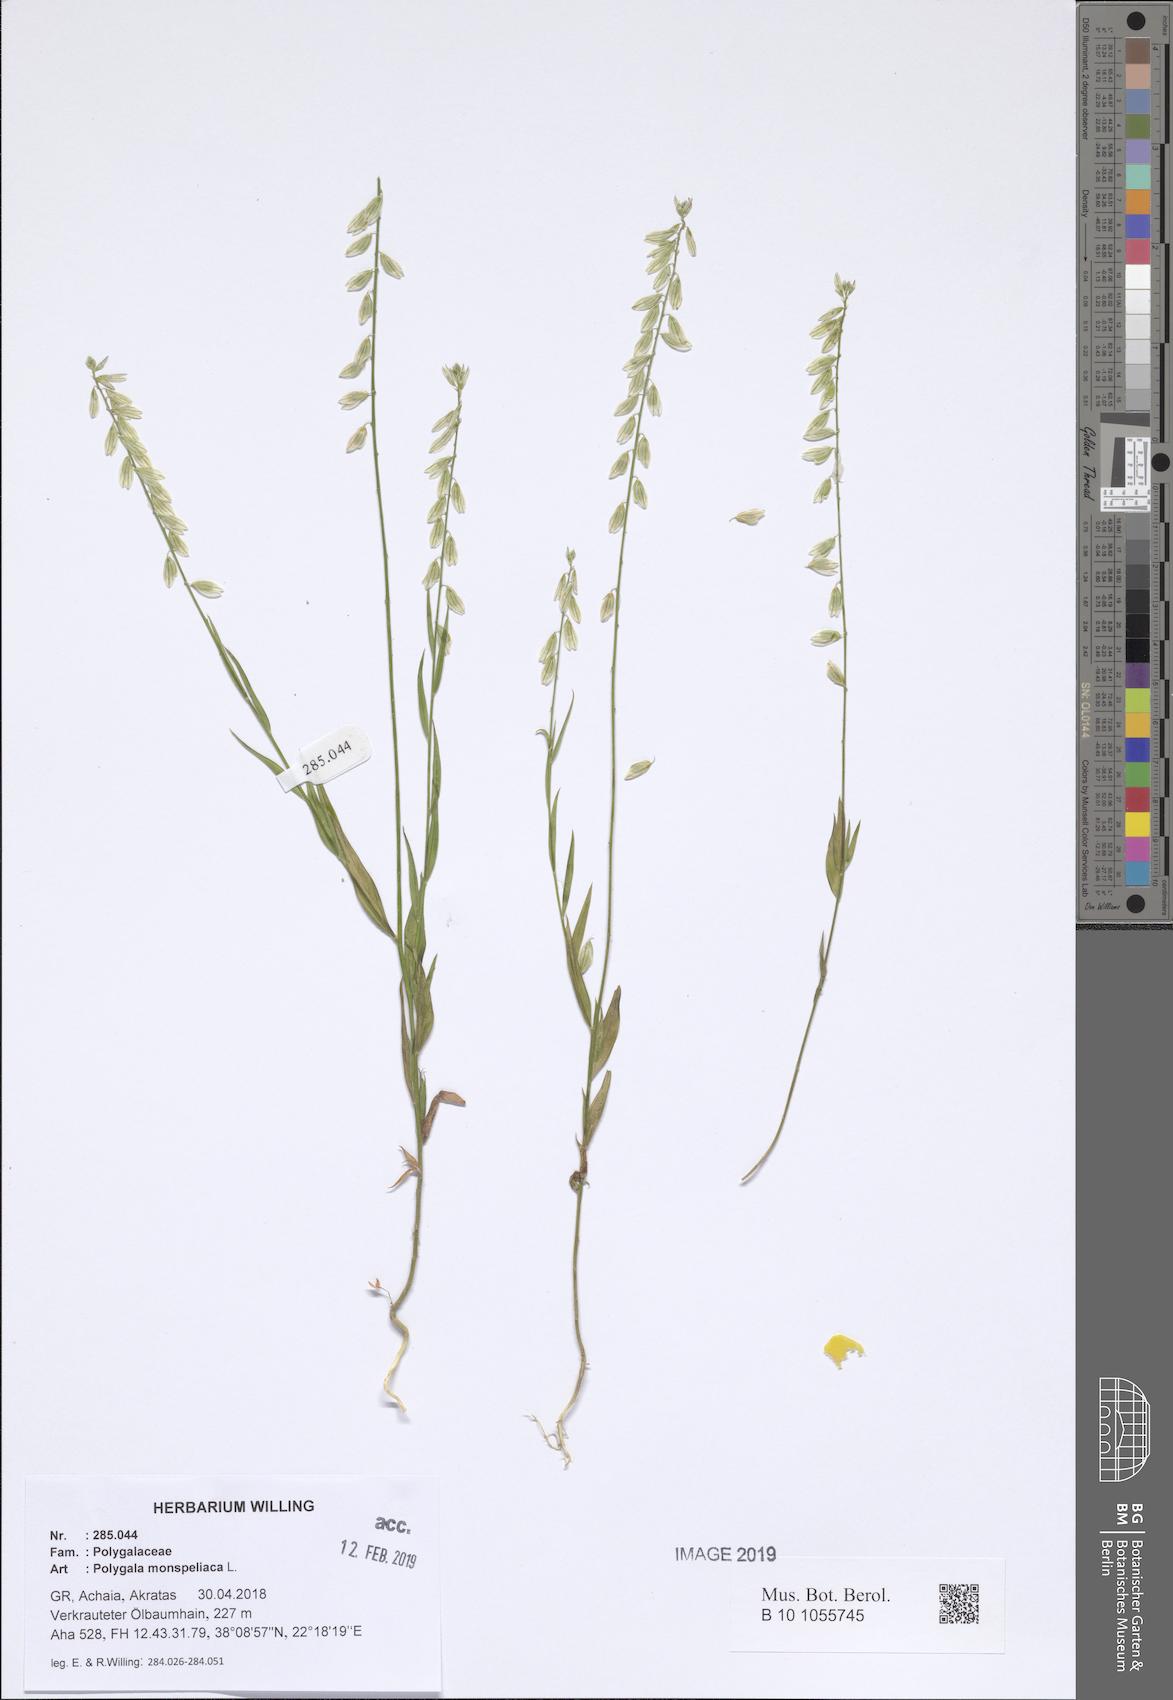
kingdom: Plantae
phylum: Tracheophyta
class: Magnoliopsida
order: Fabales
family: Polygalaceae
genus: Polygala
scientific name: Polygala monspeliaca
